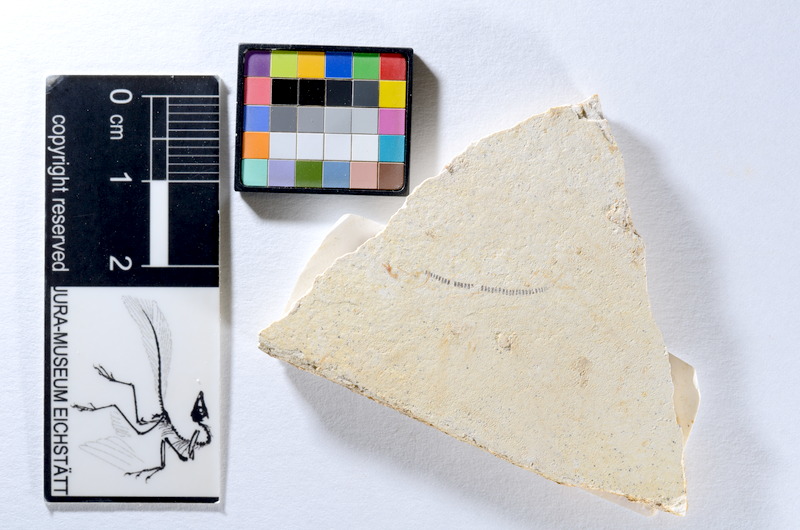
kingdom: Animalia
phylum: Chordata
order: Salmoniformes
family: Orthogonikleithridae
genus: Orthogonikleithrus
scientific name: Orthogonikleithrus hoelli
